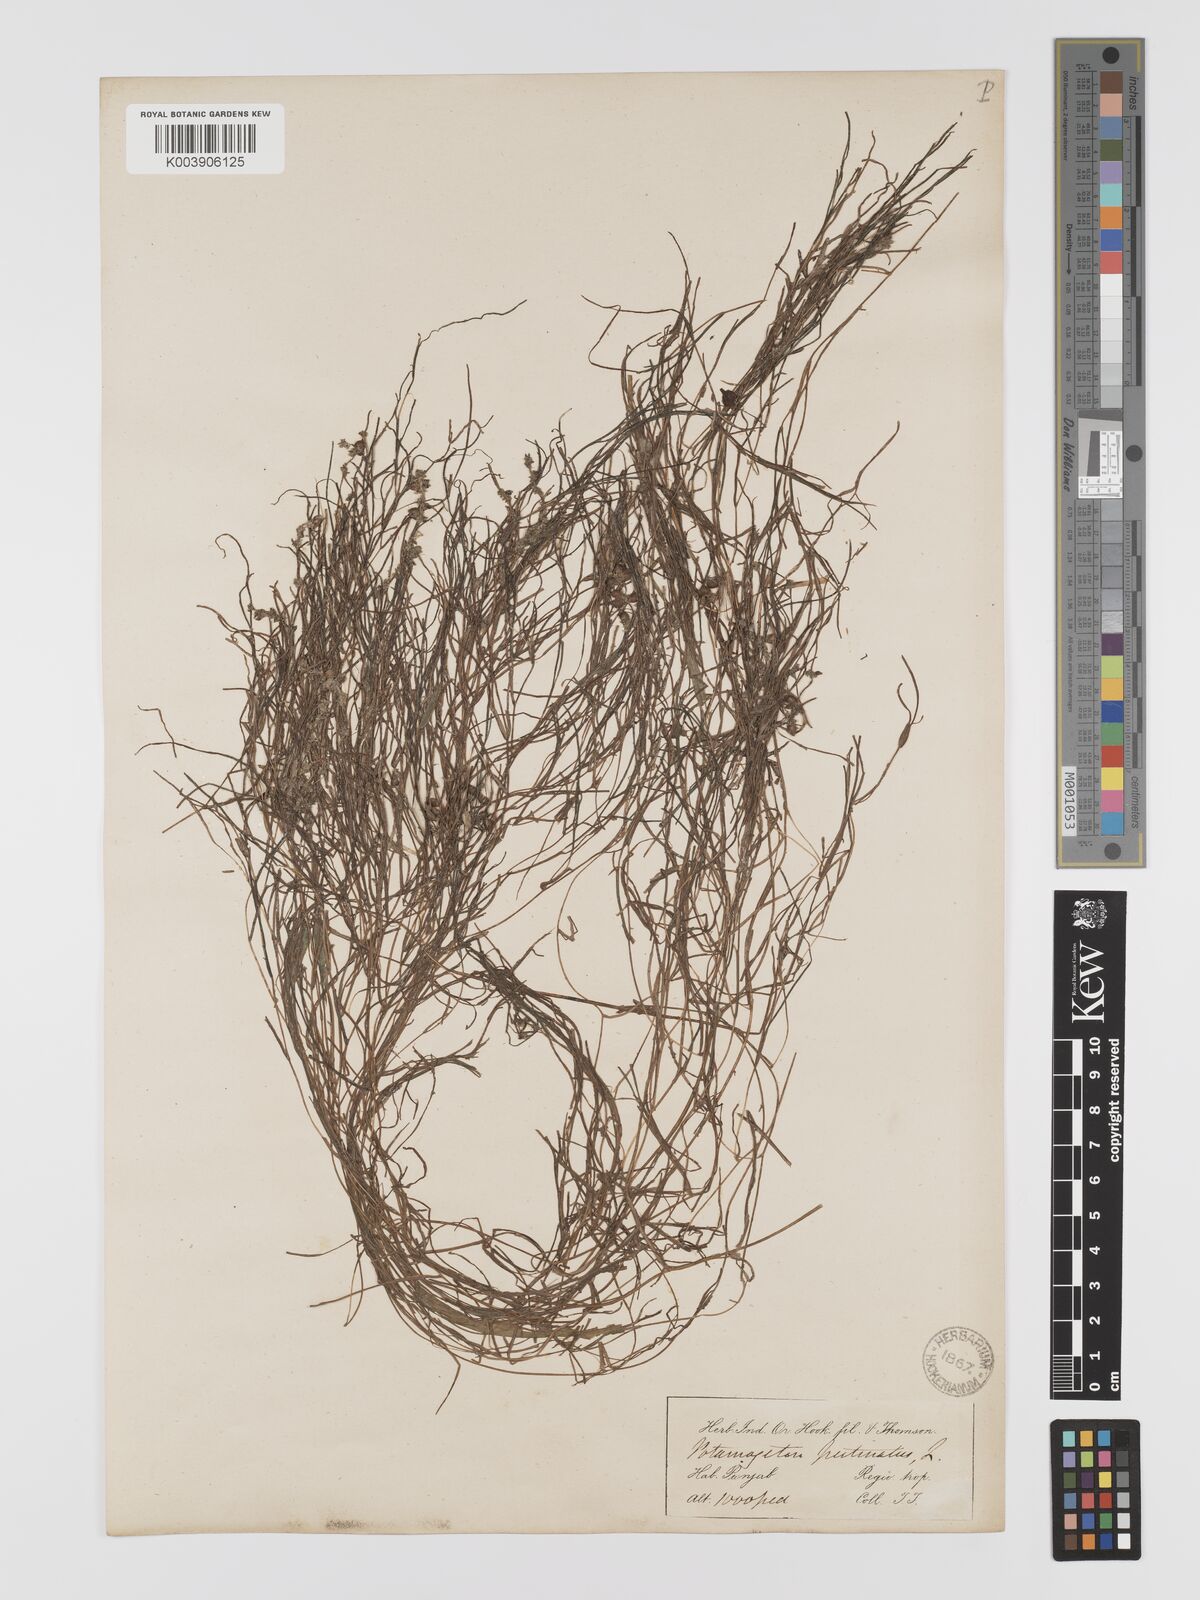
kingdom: Plantae
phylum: Tracheophyta
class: Liliopsida
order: Alismatales
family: Potamogetonaceae
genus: Stuckenia
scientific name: Stuckenia pectinata
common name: Sago pondweed
